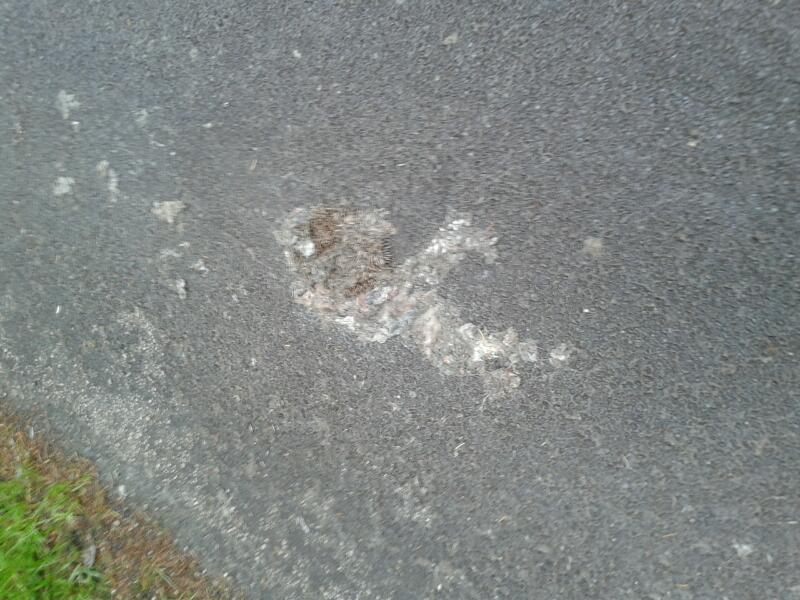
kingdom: Animalia
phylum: Chordata
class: Mammalia
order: Erinaceomorpha
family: Erinaceidae
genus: Erinaceus
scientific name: Erinaceus
